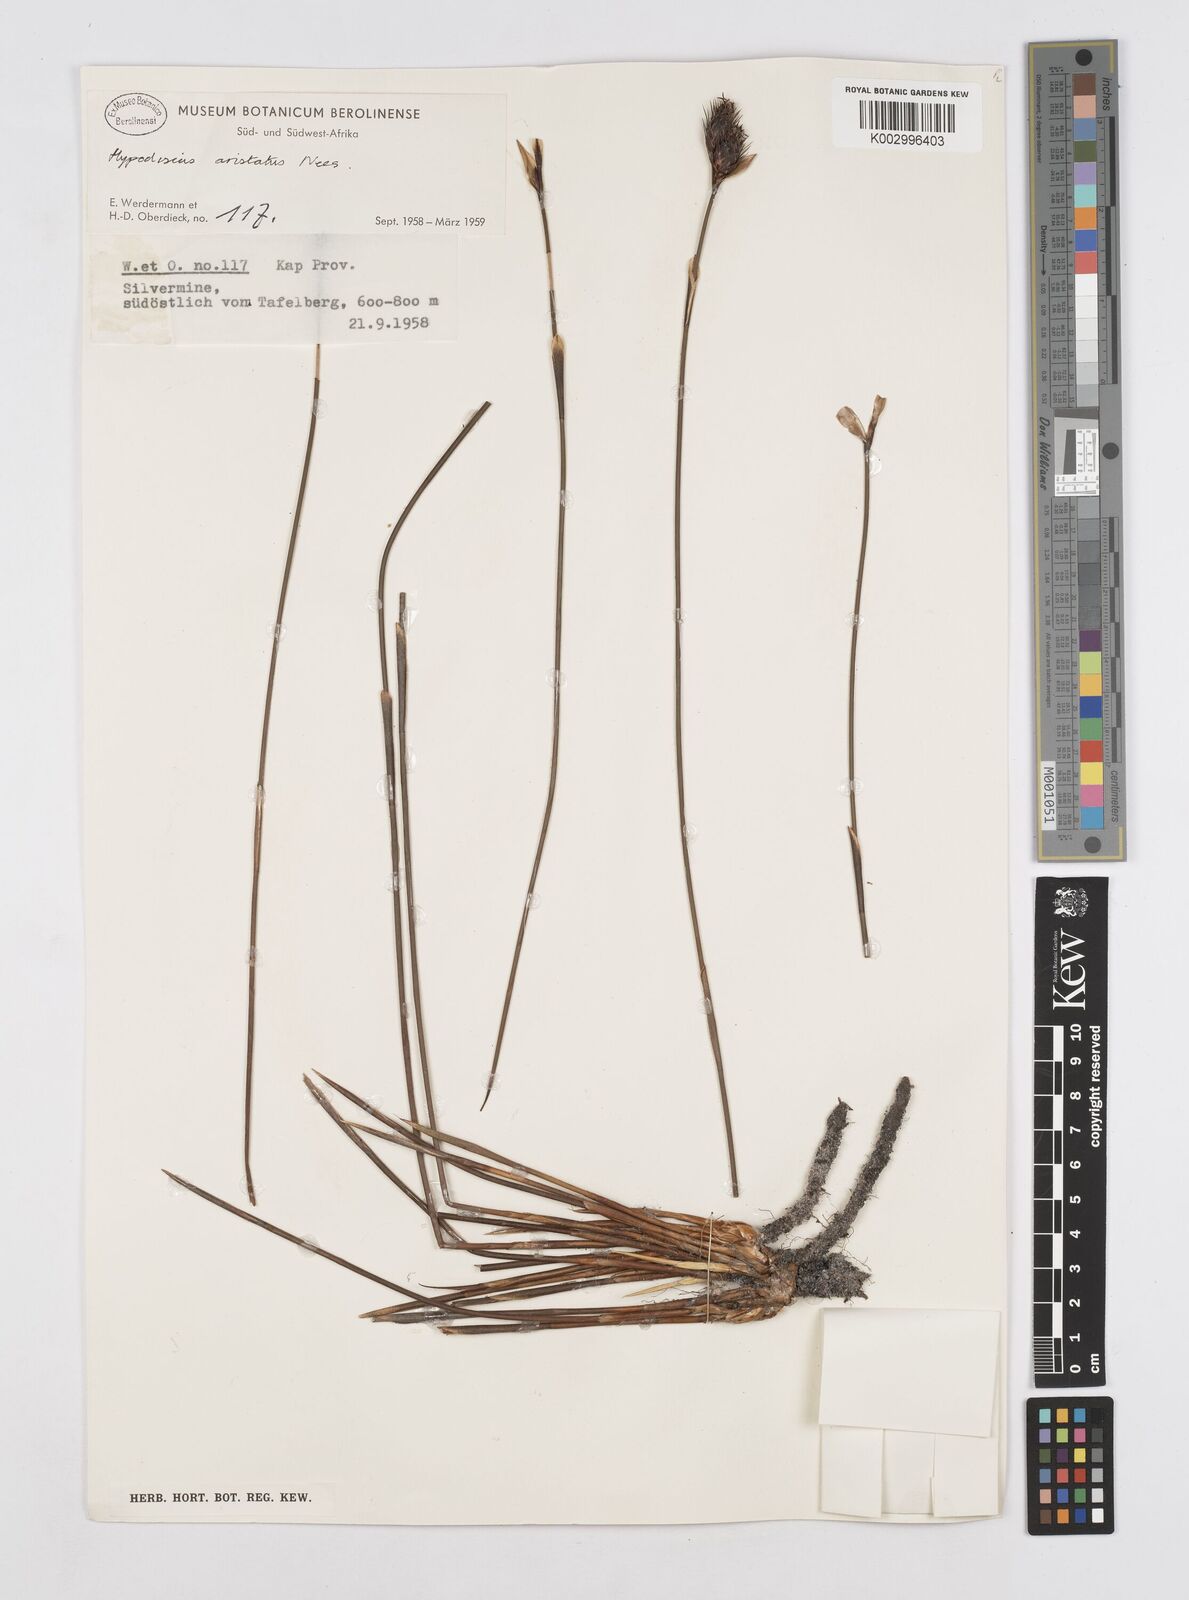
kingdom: Plantae
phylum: Tracheophyta
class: Liliopsida
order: Poales
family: Restionaceae
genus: Hypodiscus
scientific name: Hypodiscus aristatus
